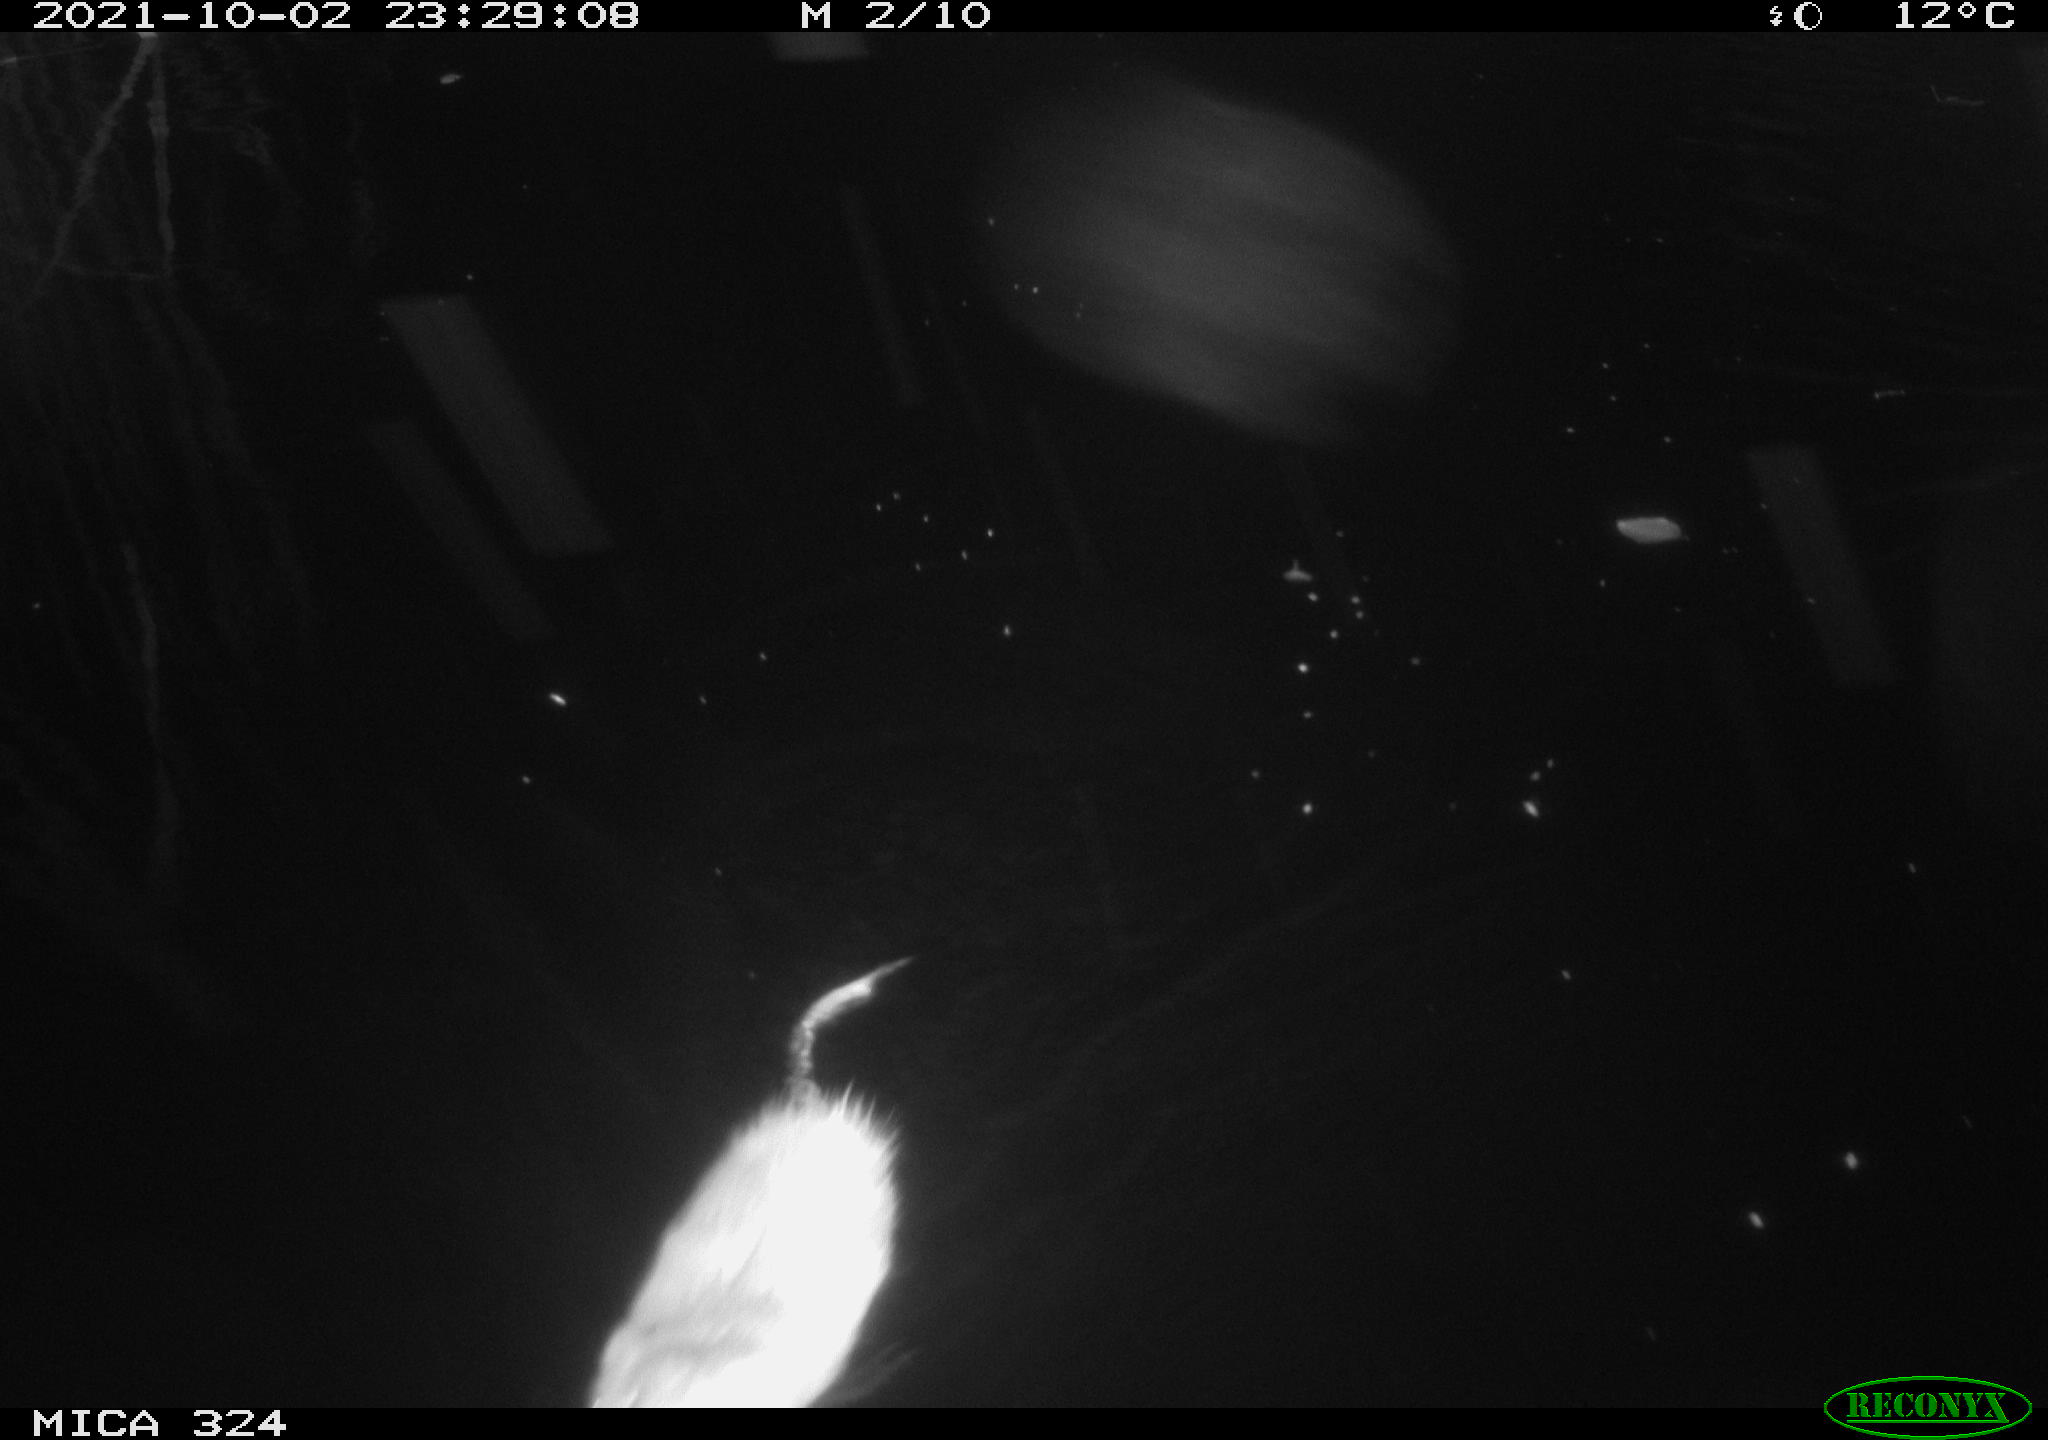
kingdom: Animalia
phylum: Chordata
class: Mammalia
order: Rodentia
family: Cricetidae
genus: Ondatra
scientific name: Ondatra zibethicus
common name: Muskrat
